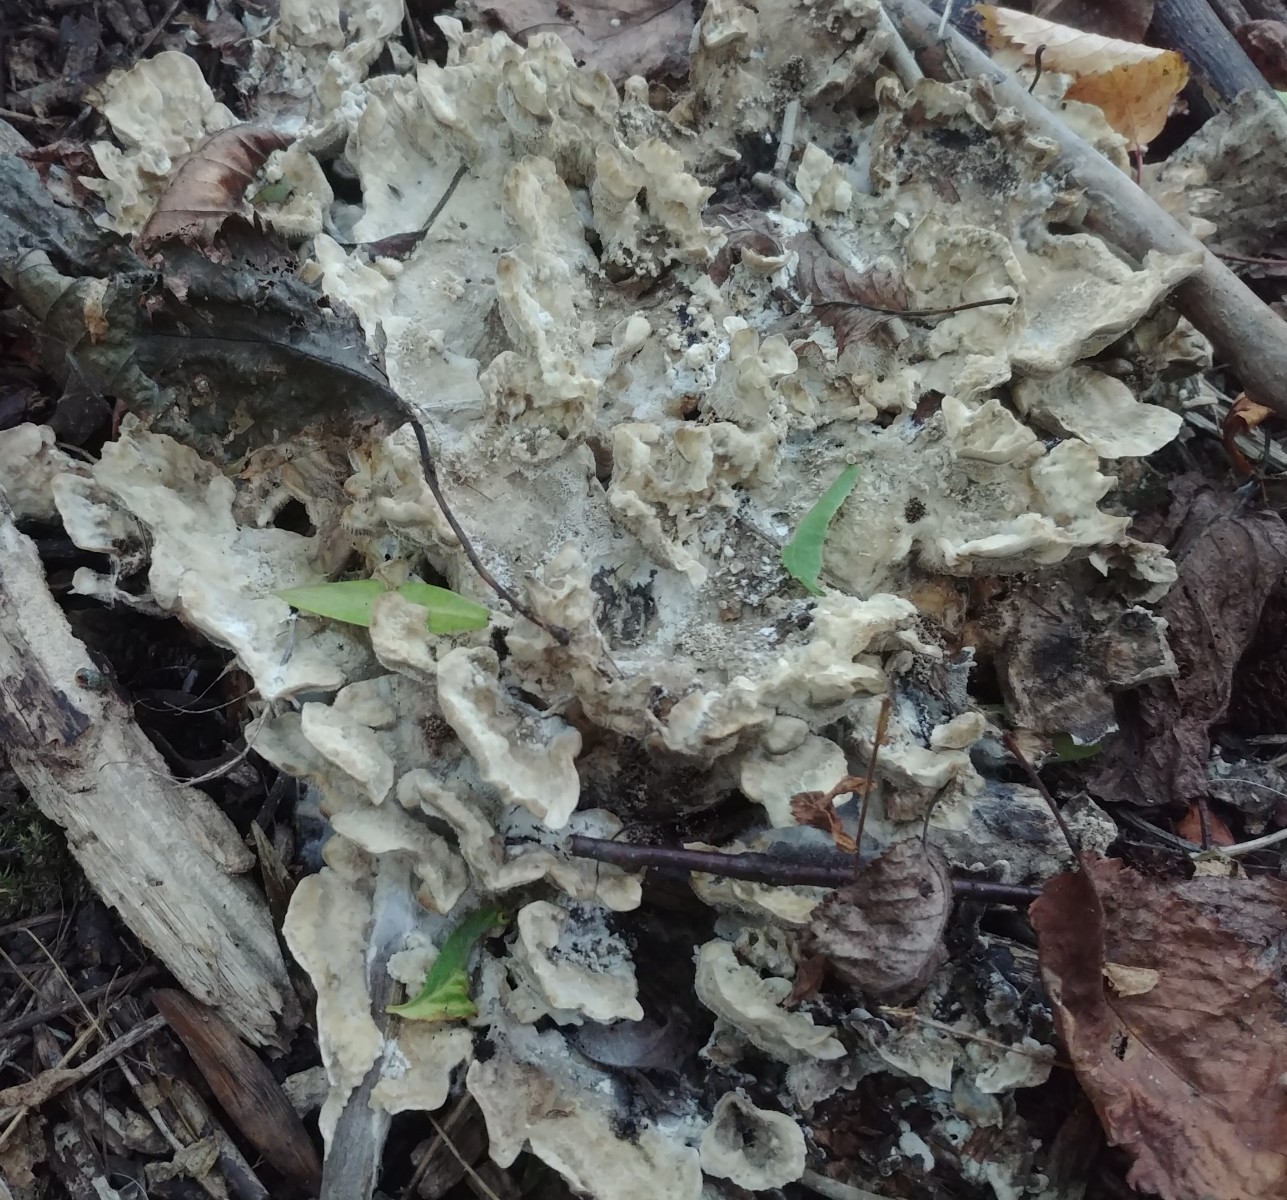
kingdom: Fungi
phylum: Basidiomycota
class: Agaricomycetes
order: Polyporales
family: Phanerochaetaceae
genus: Bjerkandera
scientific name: Bjerkandera adusta
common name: sveden sodporesvamp
